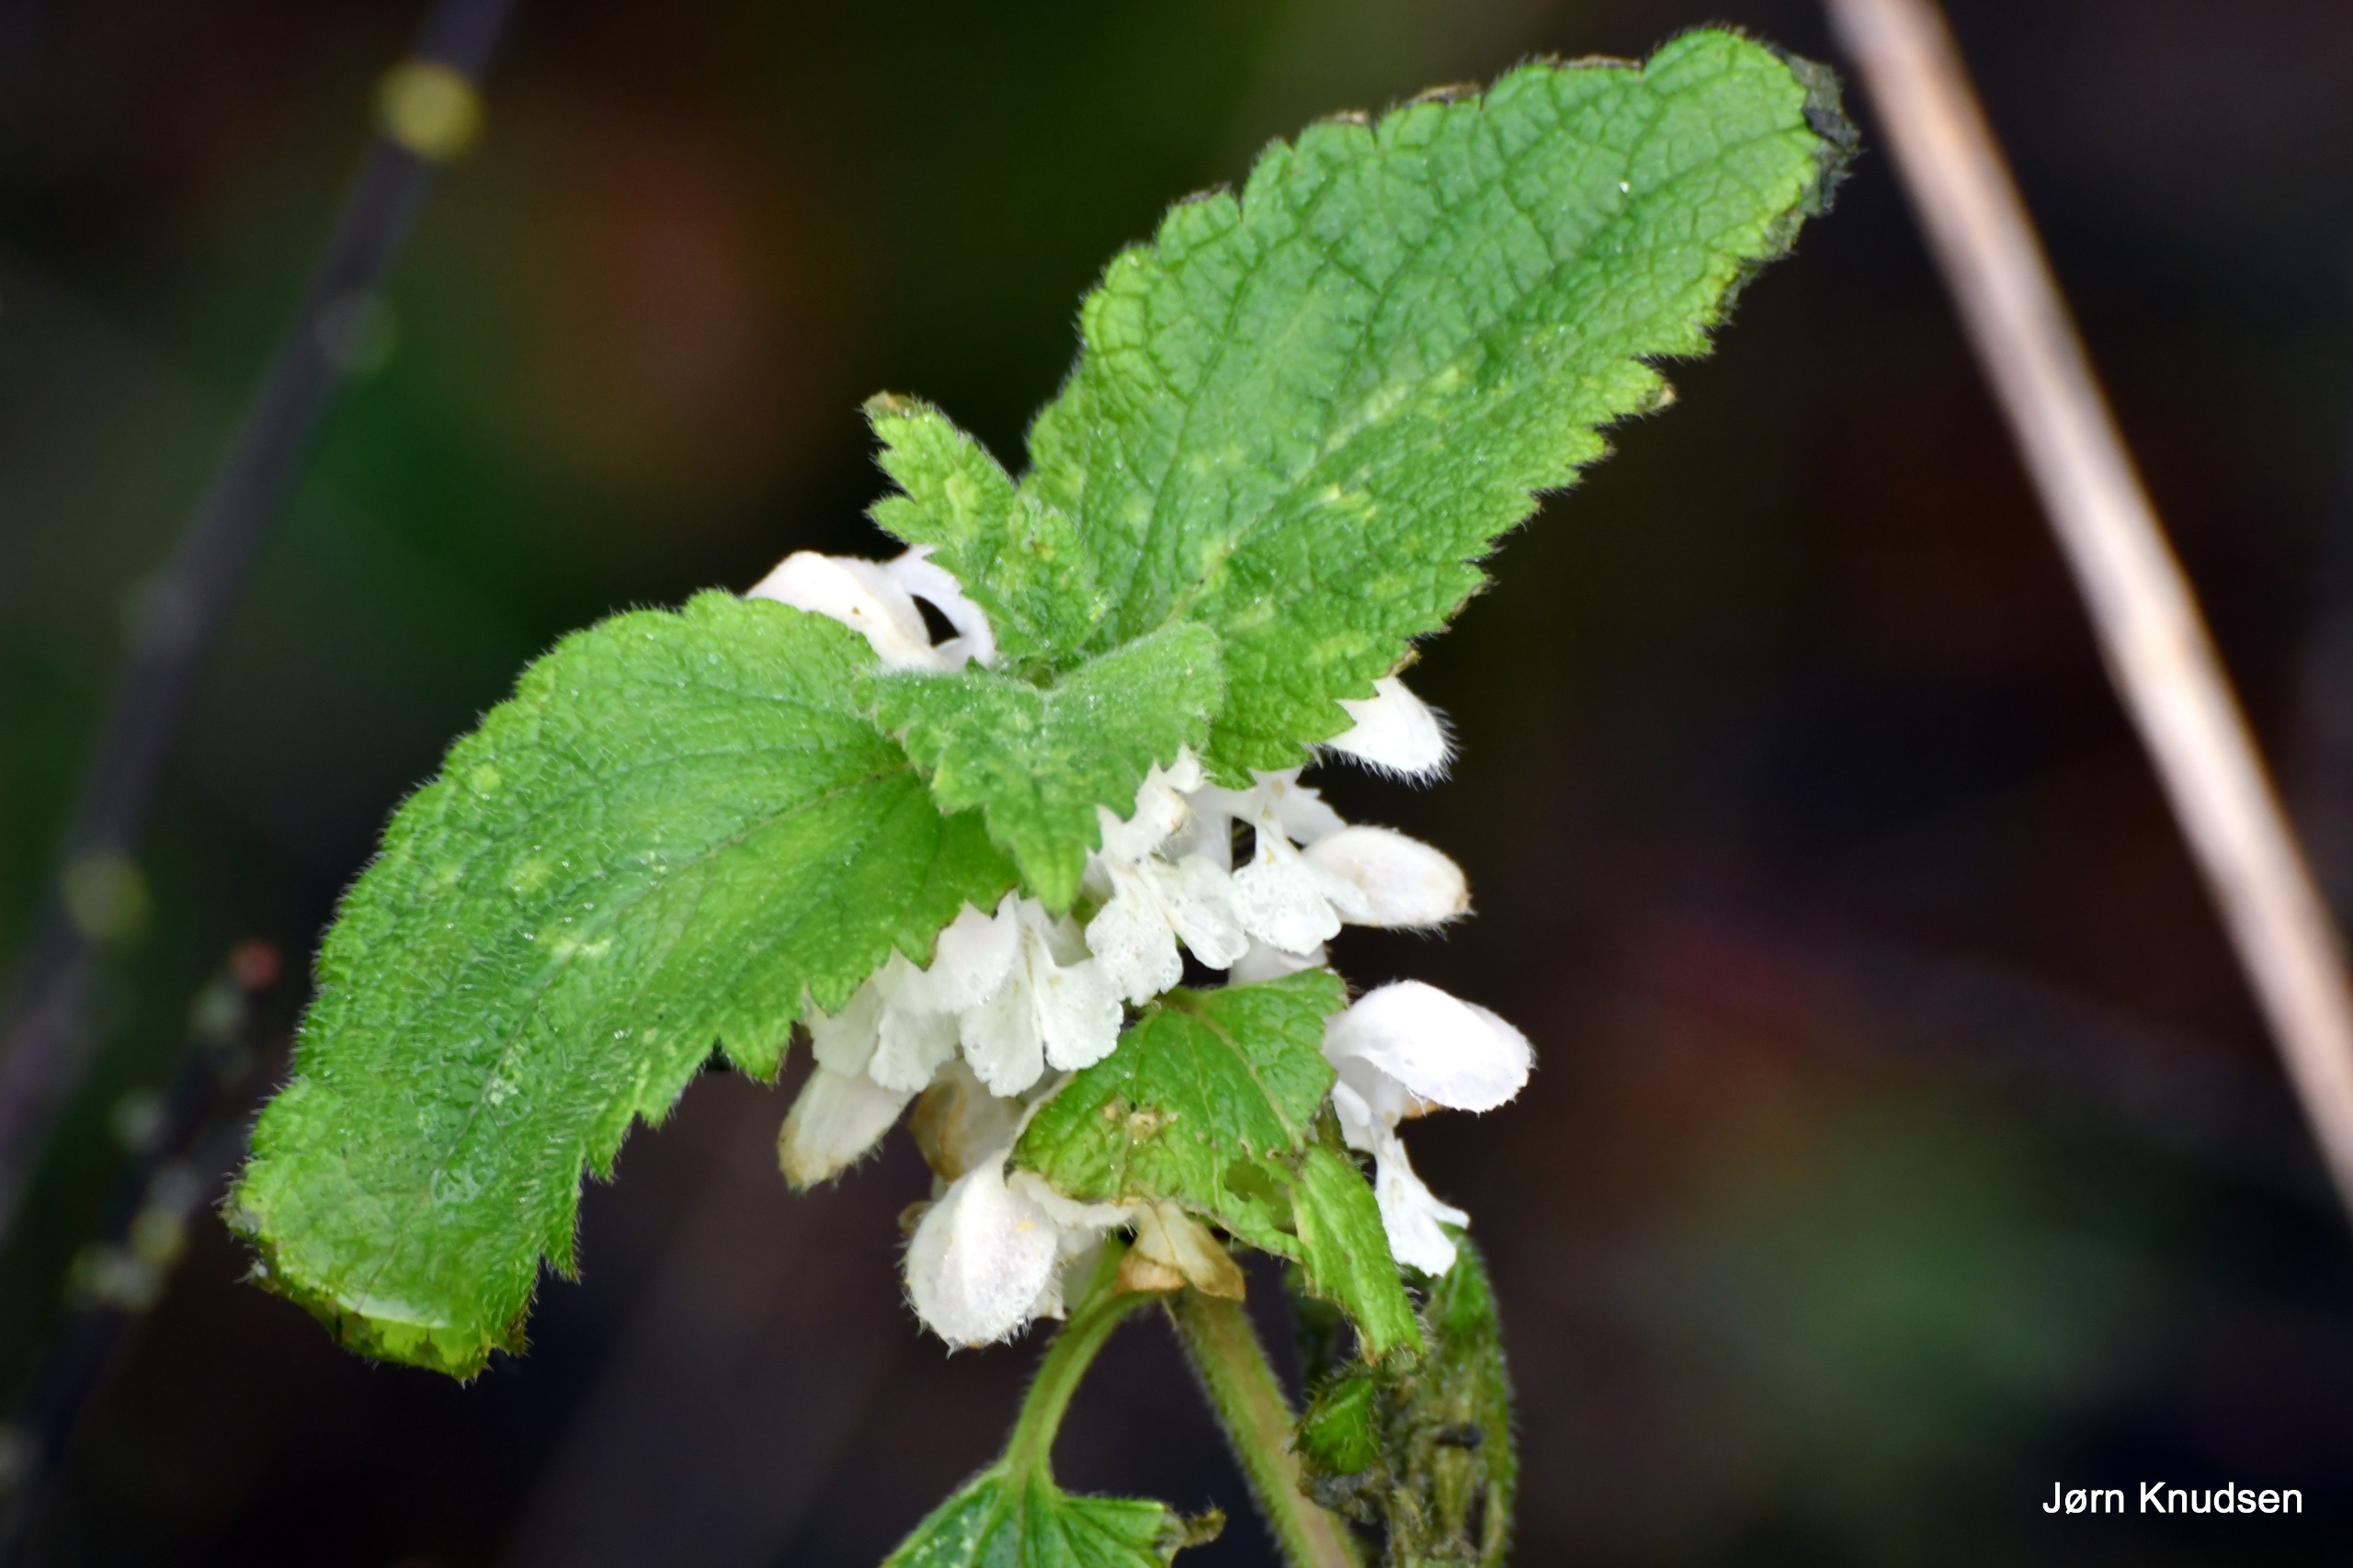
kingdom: Plantae
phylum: Tracheophyta
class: Magnoliopsida
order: Lamiales
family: Lamiaceae
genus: Lamium
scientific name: Lamium album
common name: Døvnælde
